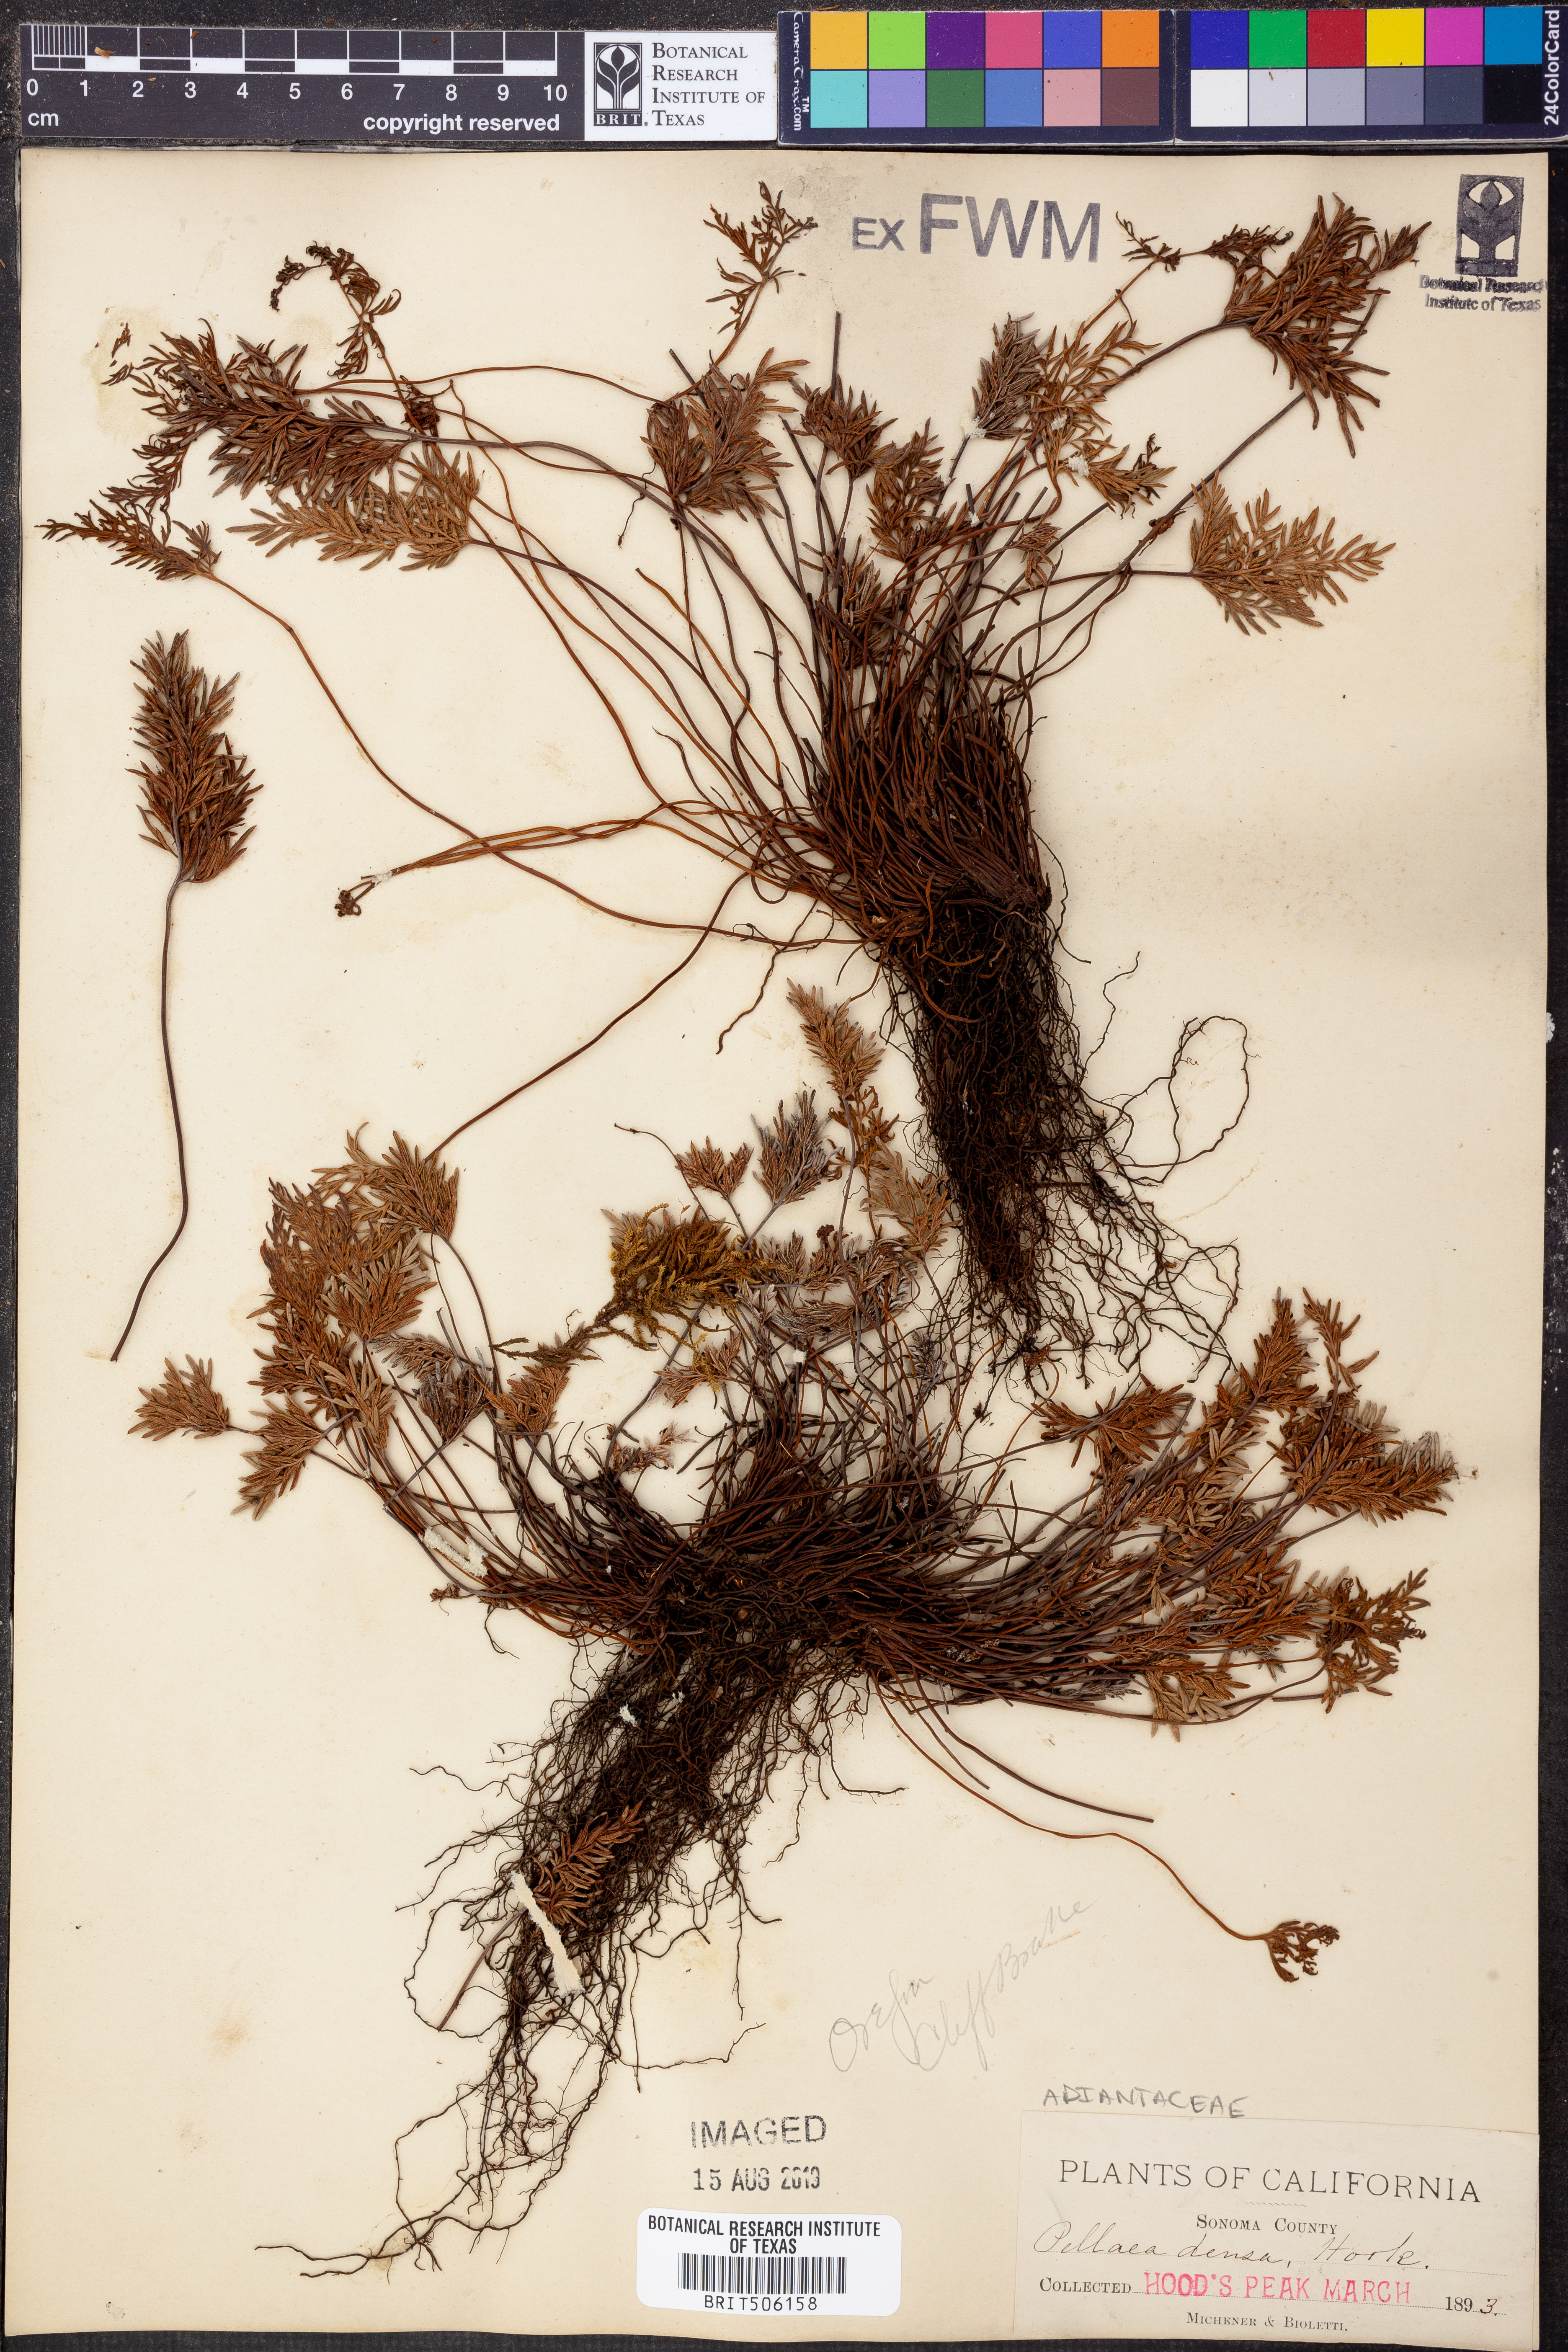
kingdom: Plantae
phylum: Tracheophyta
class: Polypodiopsida
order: Polypodiales
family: Pteridaceae
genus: Aspidotis
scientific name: Aspidotis densa
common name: Indian's dream
